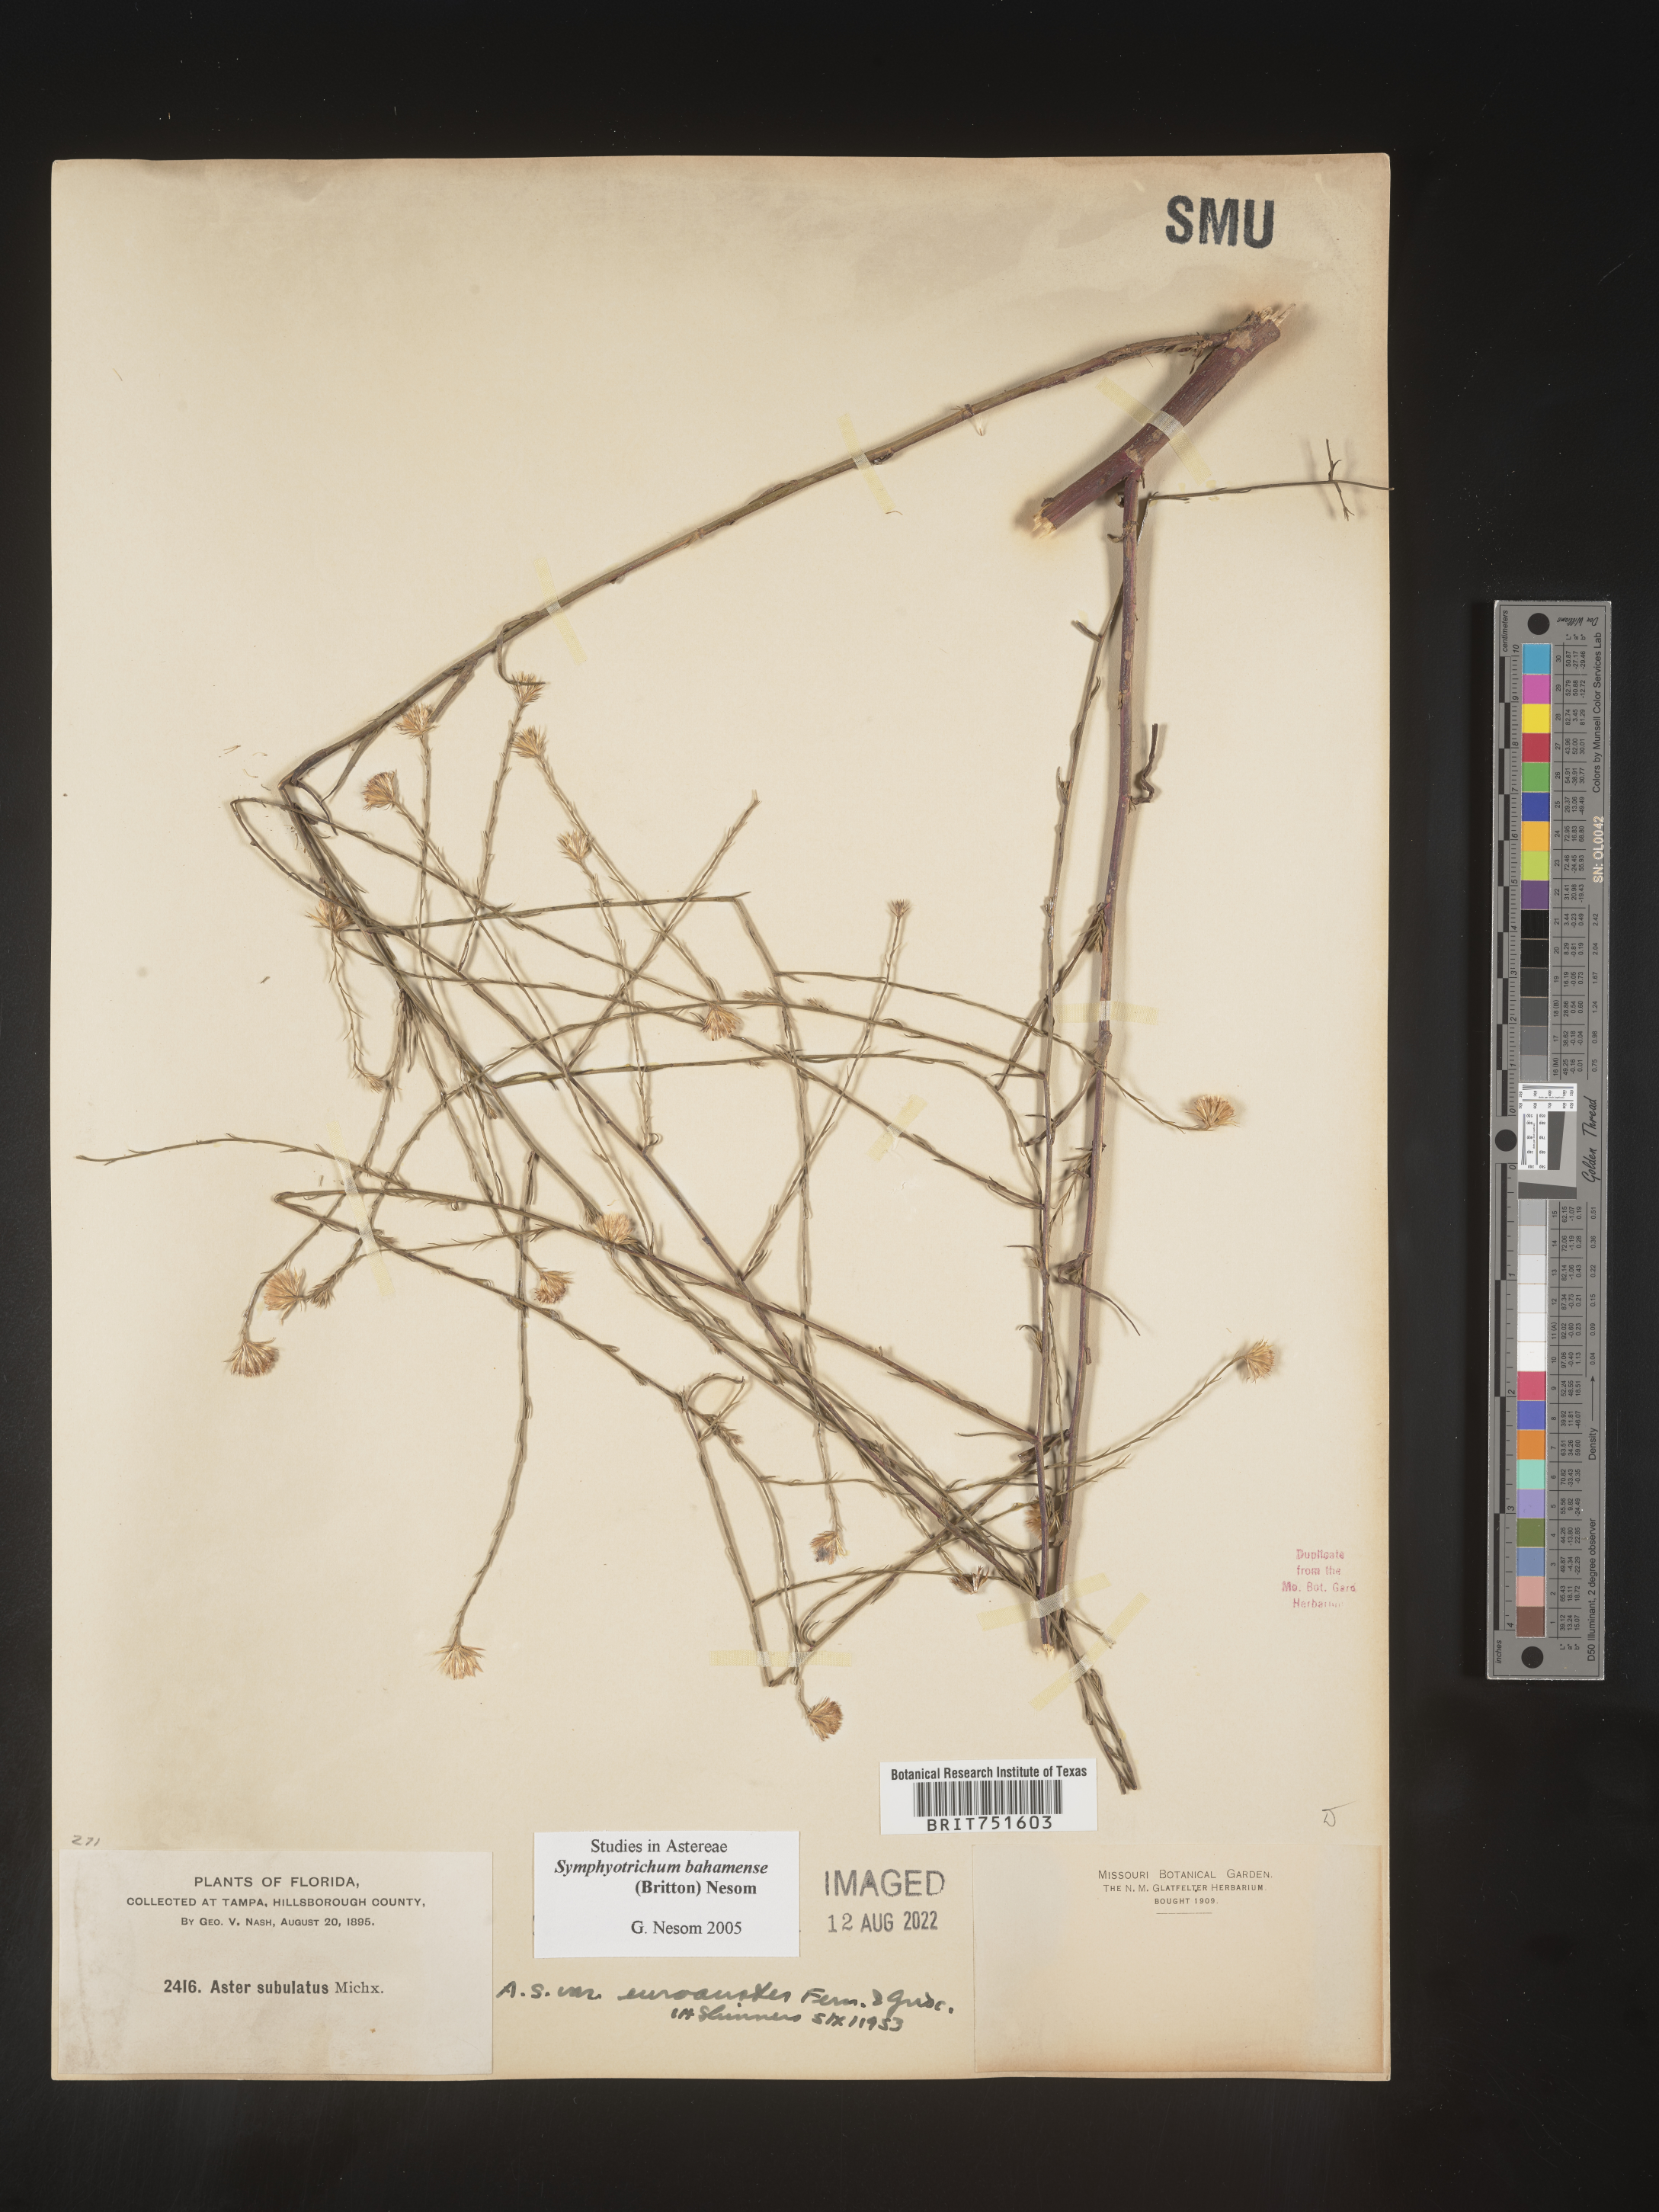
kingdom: Plantae
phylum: Tracheophyta
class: Magnoliopsida
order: Asterales
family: Asteraceae
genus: Symphyotrichum
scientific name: Symphyotrichum subulatum
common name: Annual saltmarsh aster
